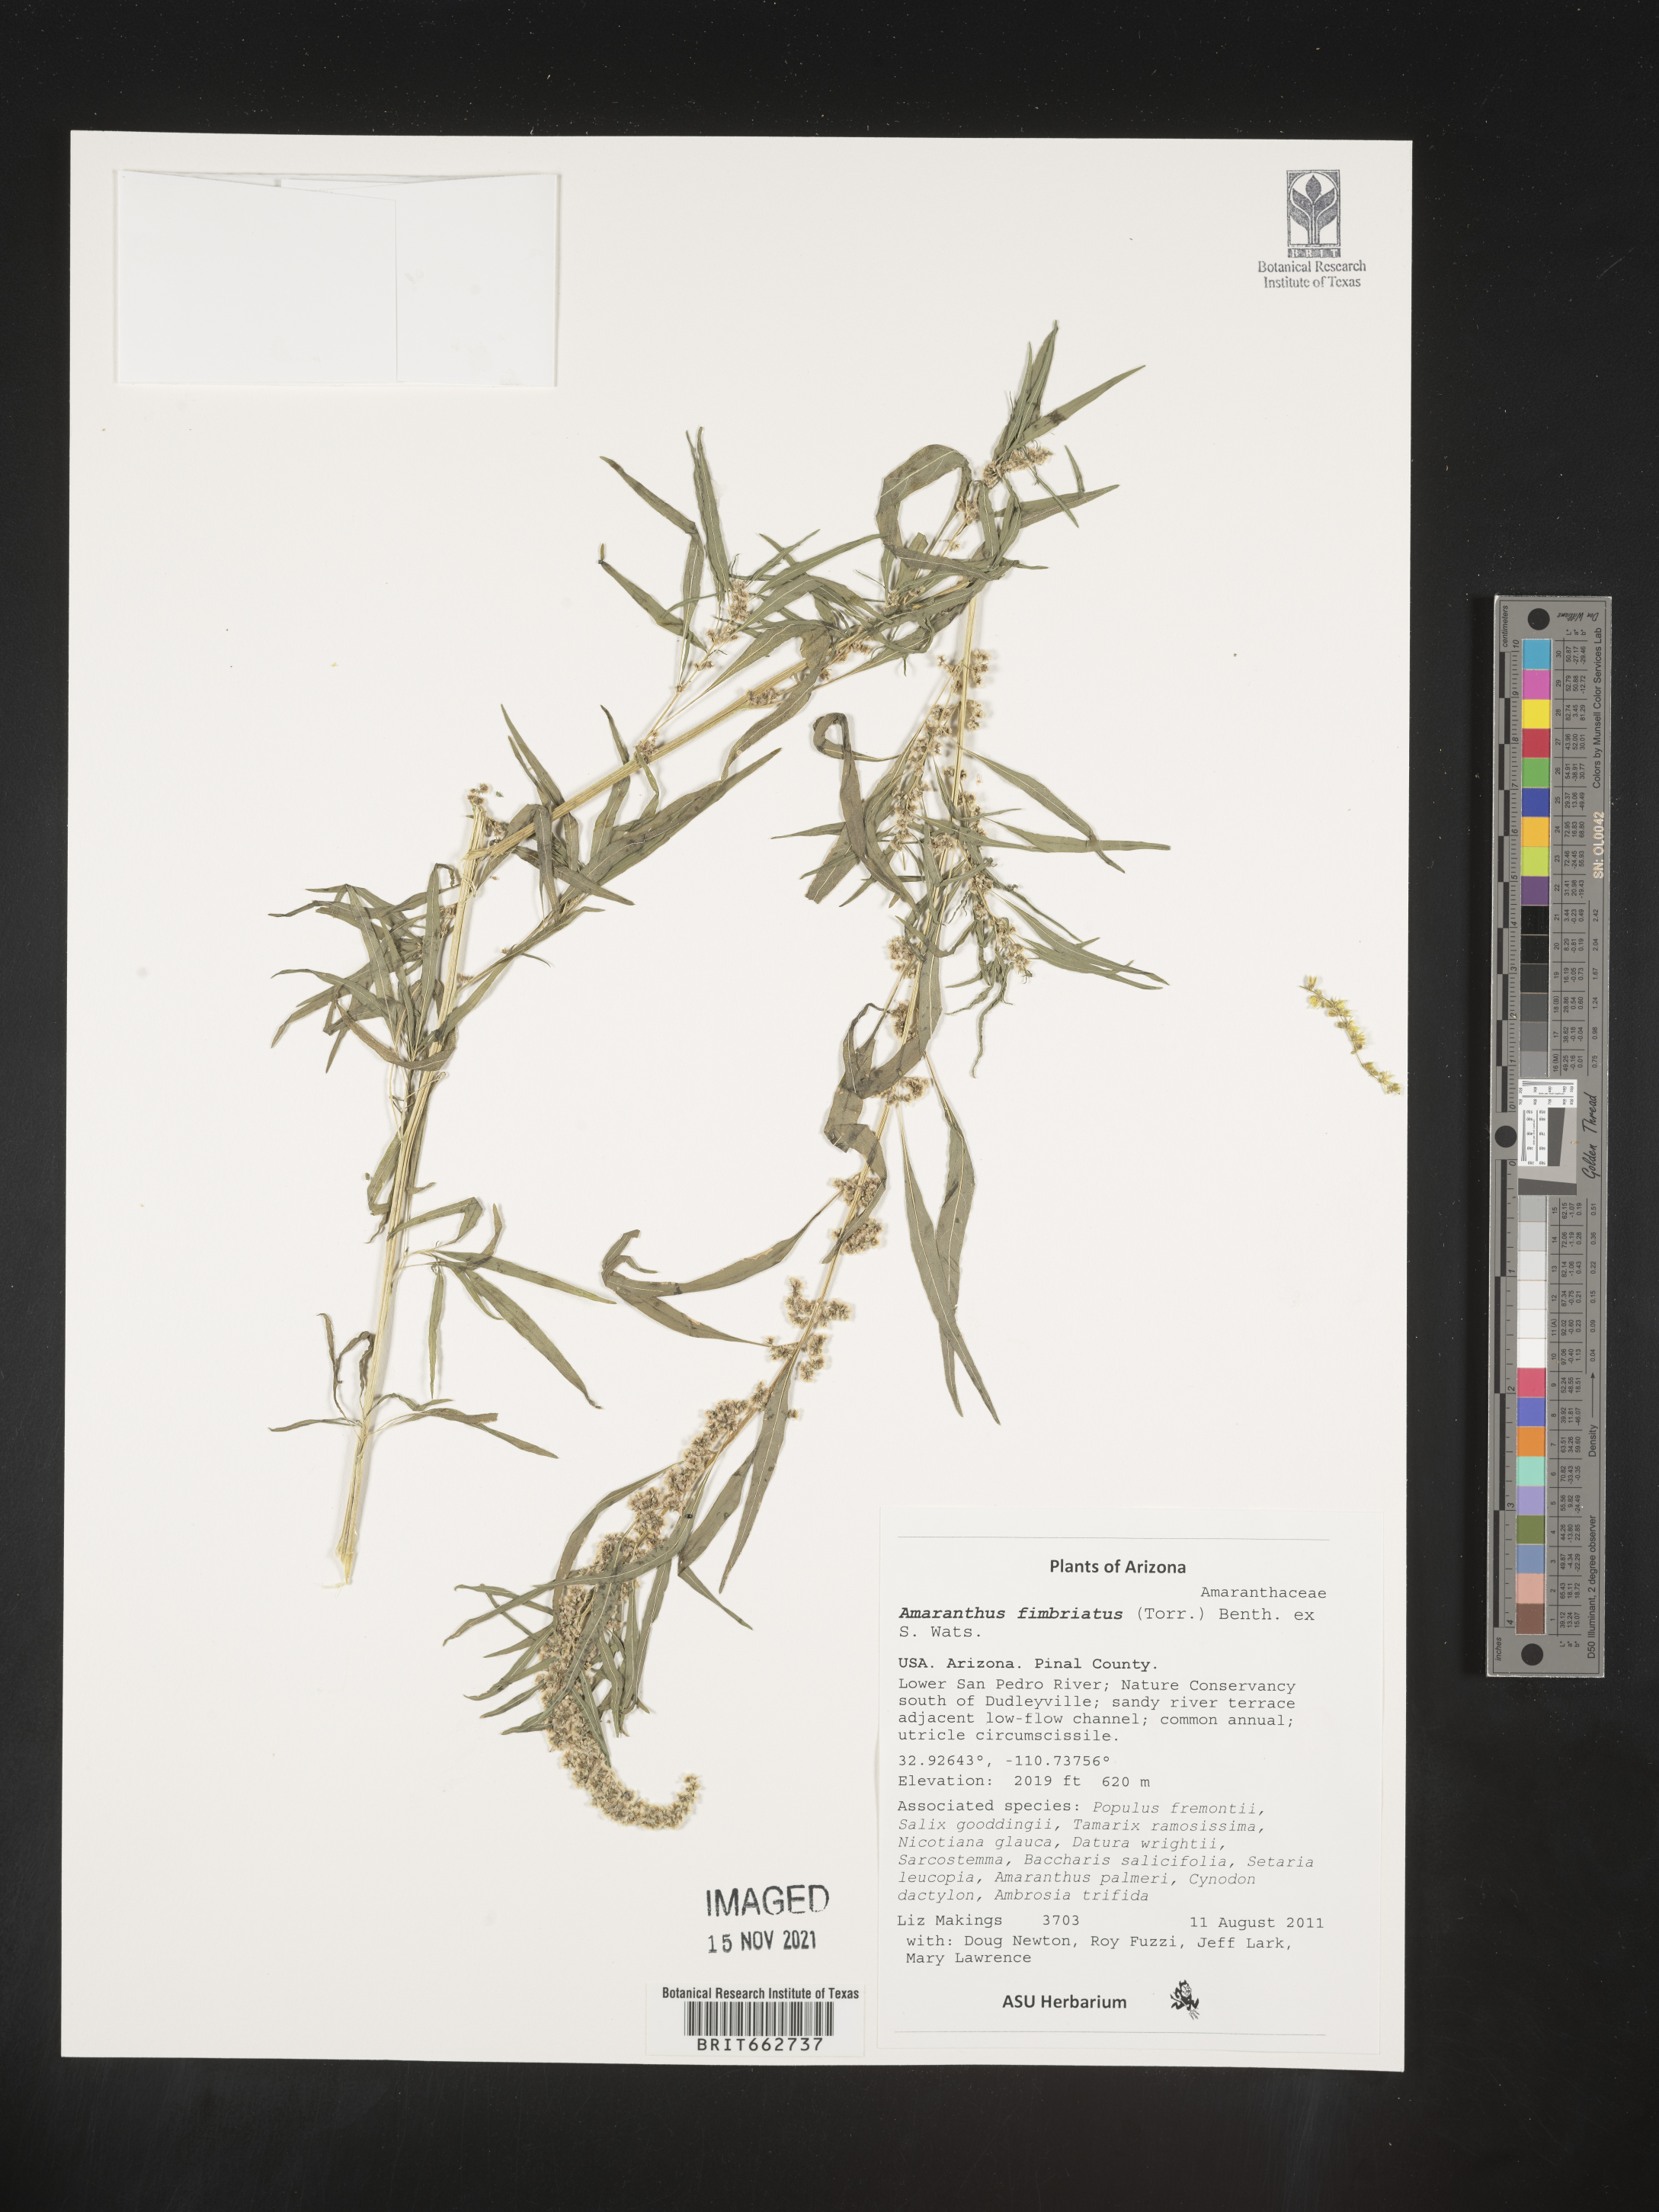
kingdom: Plantae
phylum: Tracheophyta
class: Magnoliopsida
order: Caryophyllales
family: Amaranthaceae
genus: Amaranthus
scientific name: Amaranthus
